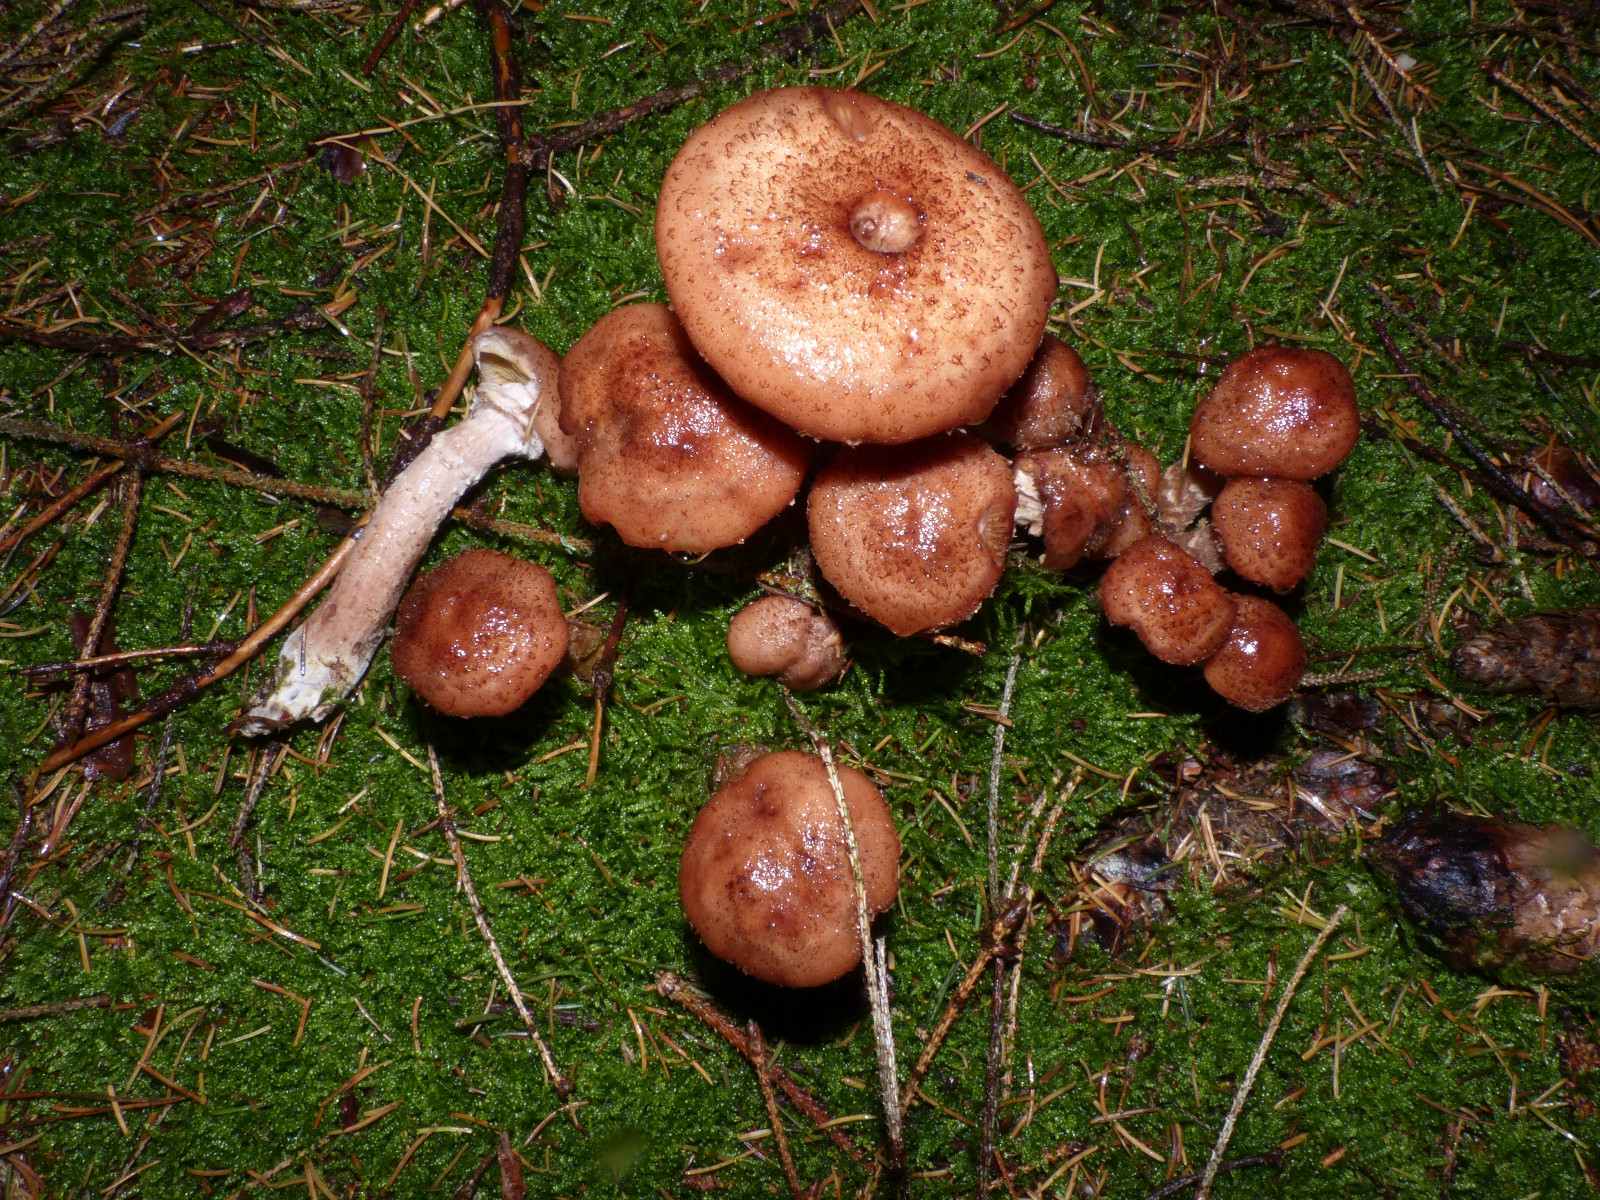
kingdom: Fungi
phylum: Basidiomycota
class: Agaricomycetes
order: Agaricales
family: Physalacriaceae
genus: Armillaria
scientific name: Armillaria ostoyae
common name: mørk honningsvamp
